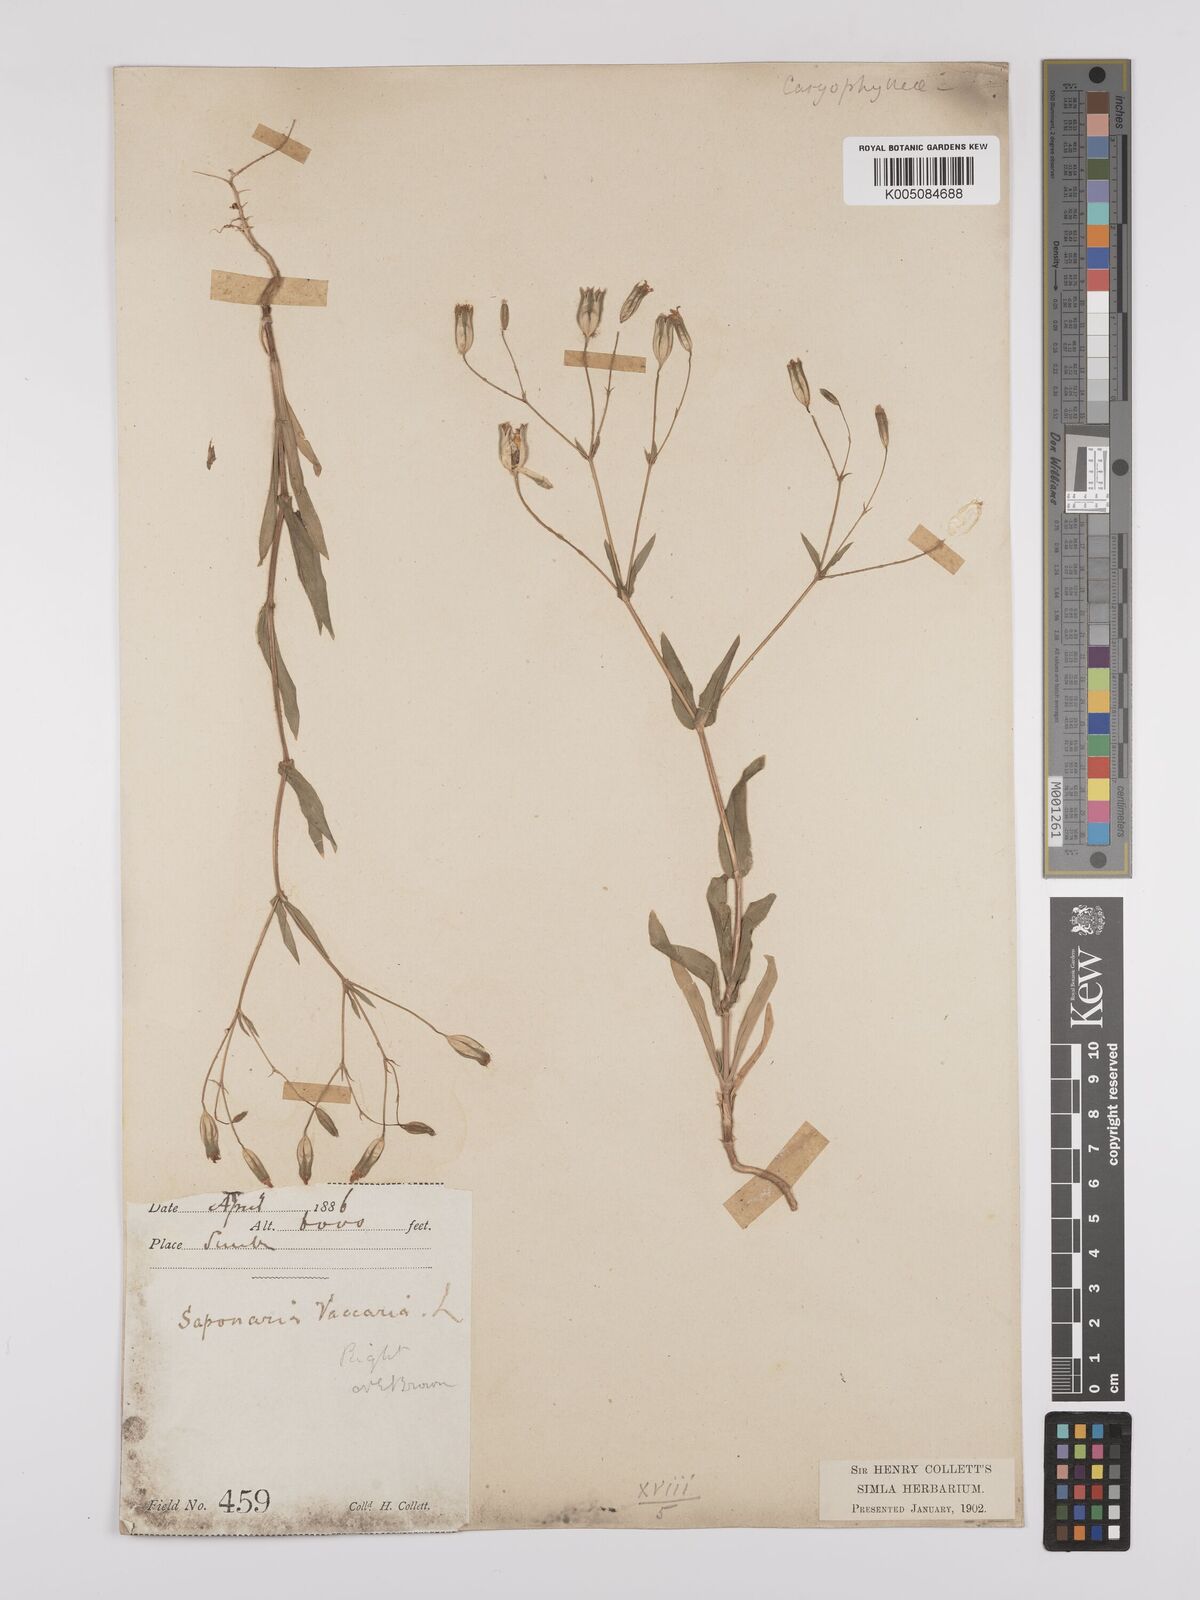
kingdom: Plantae
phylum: Tracheophyta
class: Magnoliopsida
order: Caryophyllales
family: Caryophyllaceae
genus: Gypsophila
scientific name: Gypsophila vaccaria
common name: Cow soapwort
